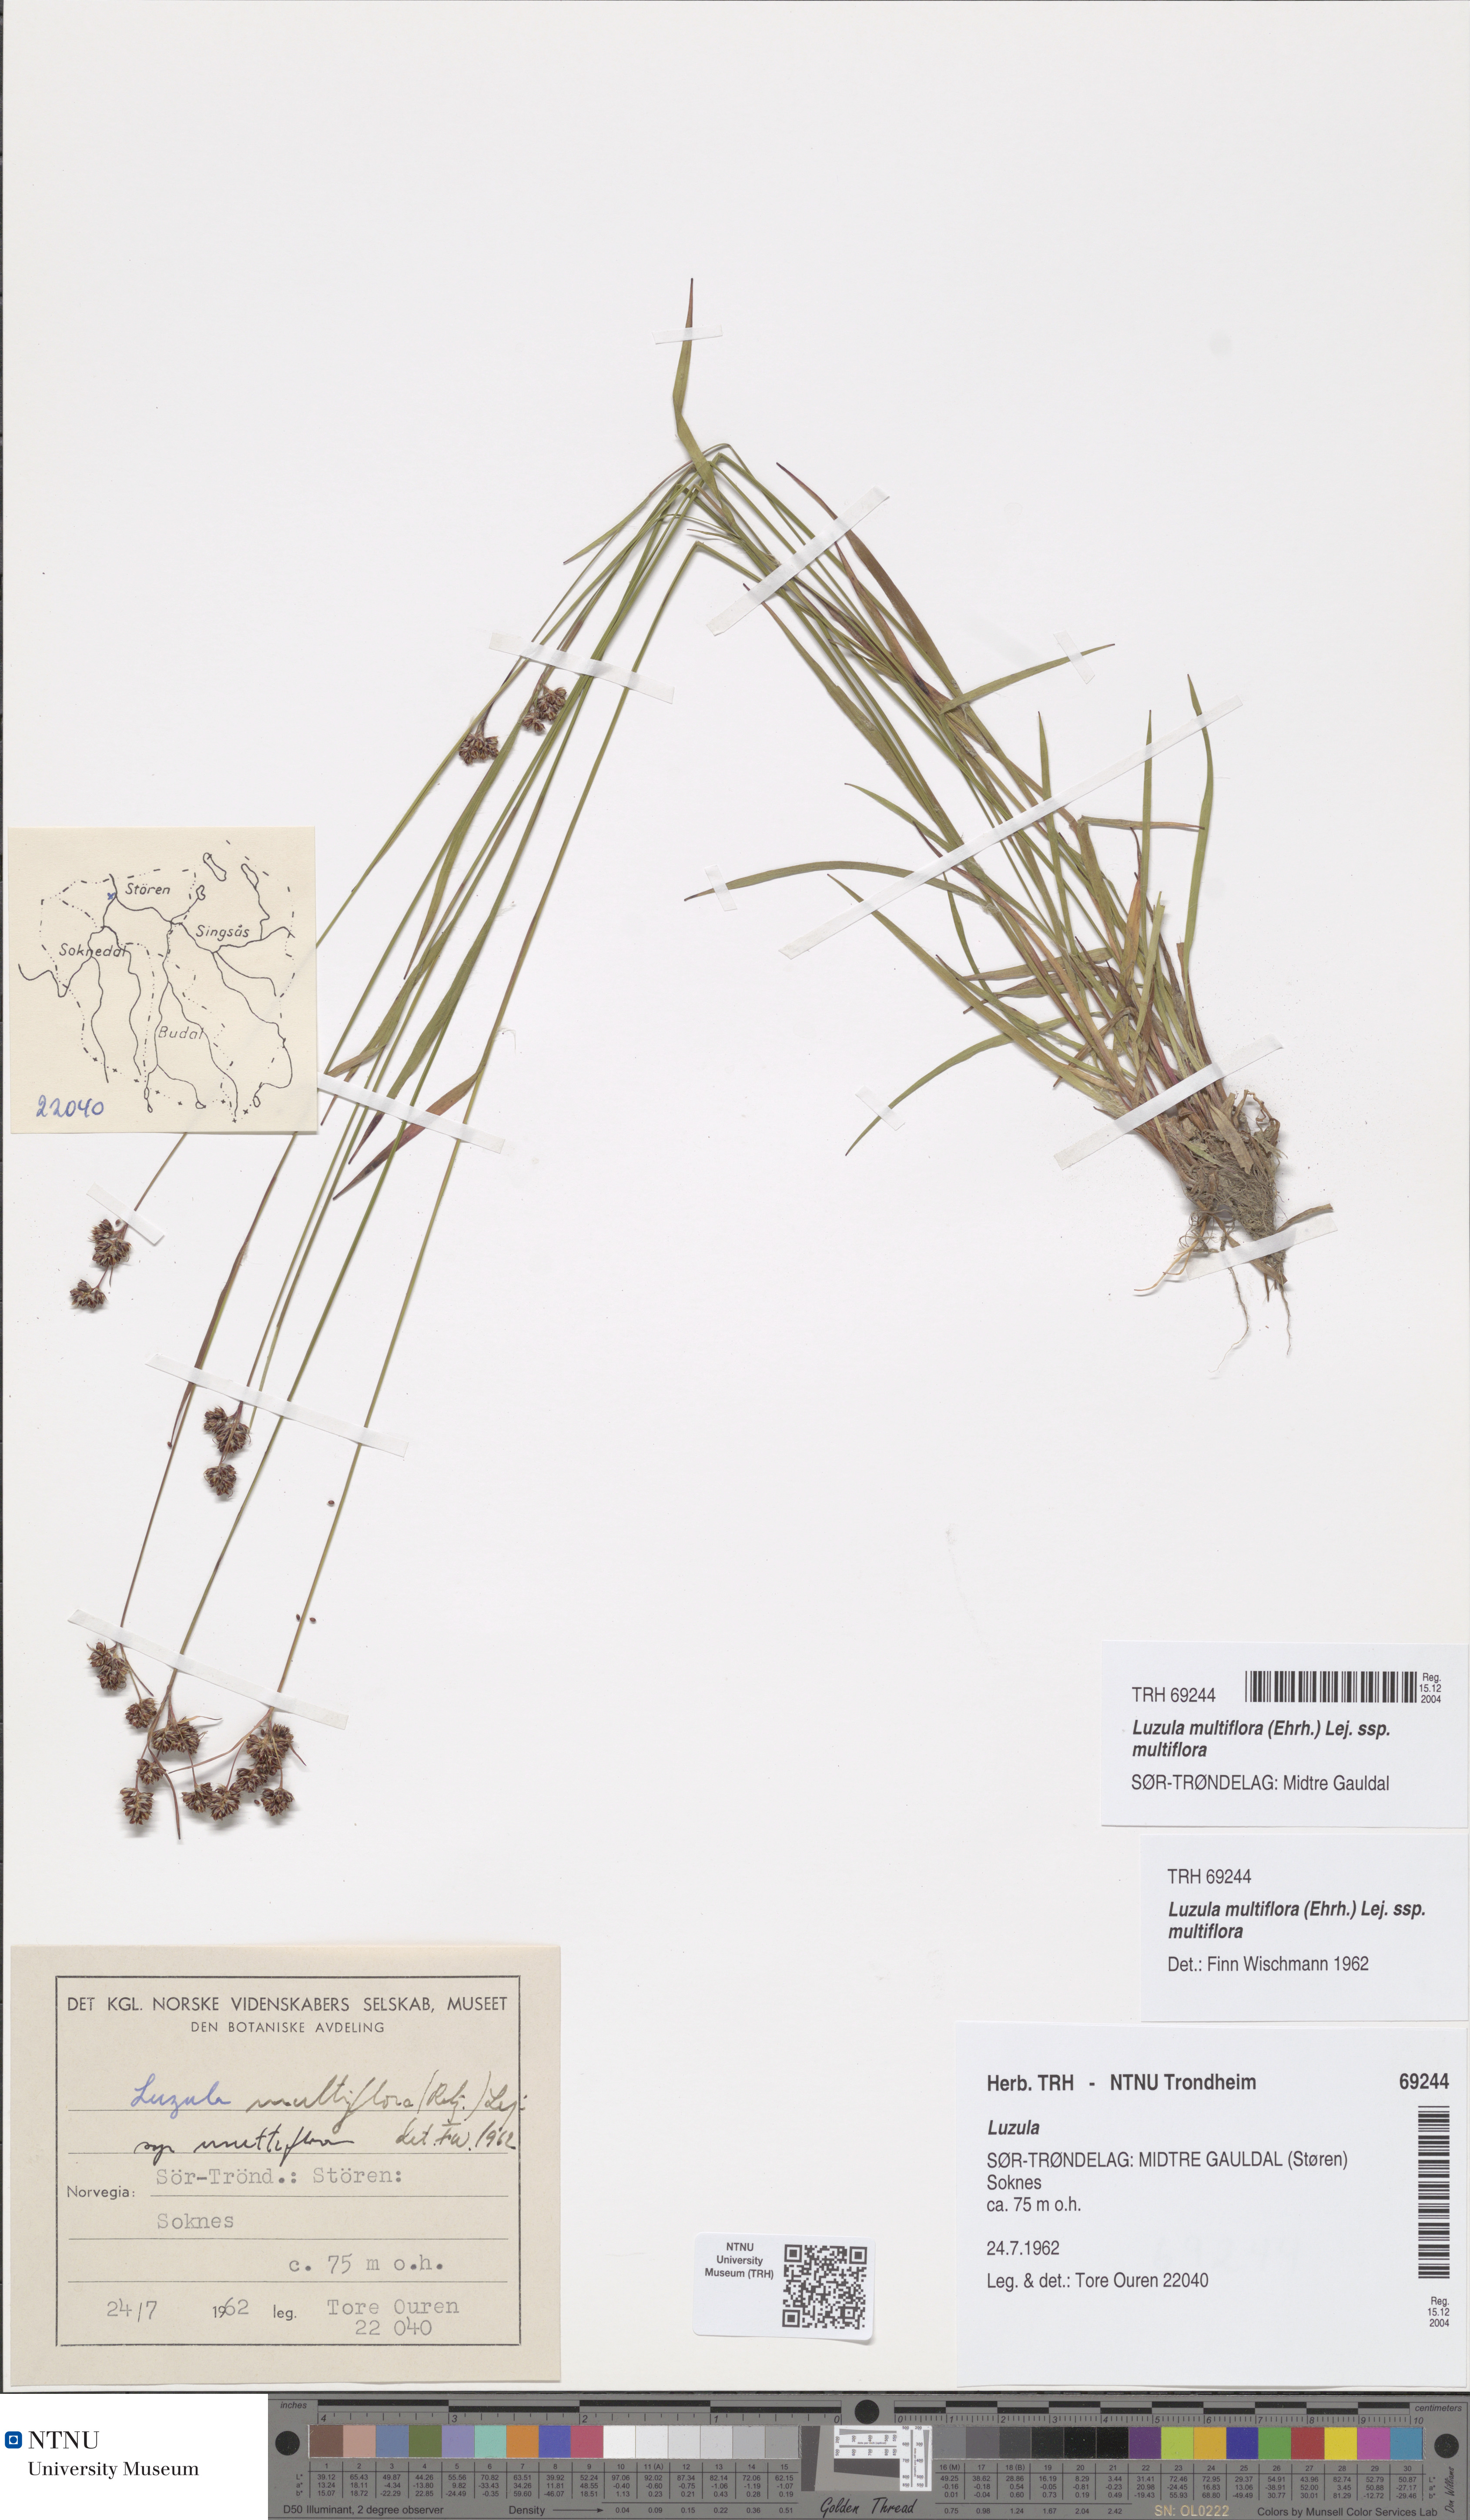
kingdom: Plantae
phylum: Tracheophyta
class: Liliopsida
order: Poales
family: Juncaceae
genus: Luzula
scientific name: Luzula multiflora
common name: Heath wood-rush
